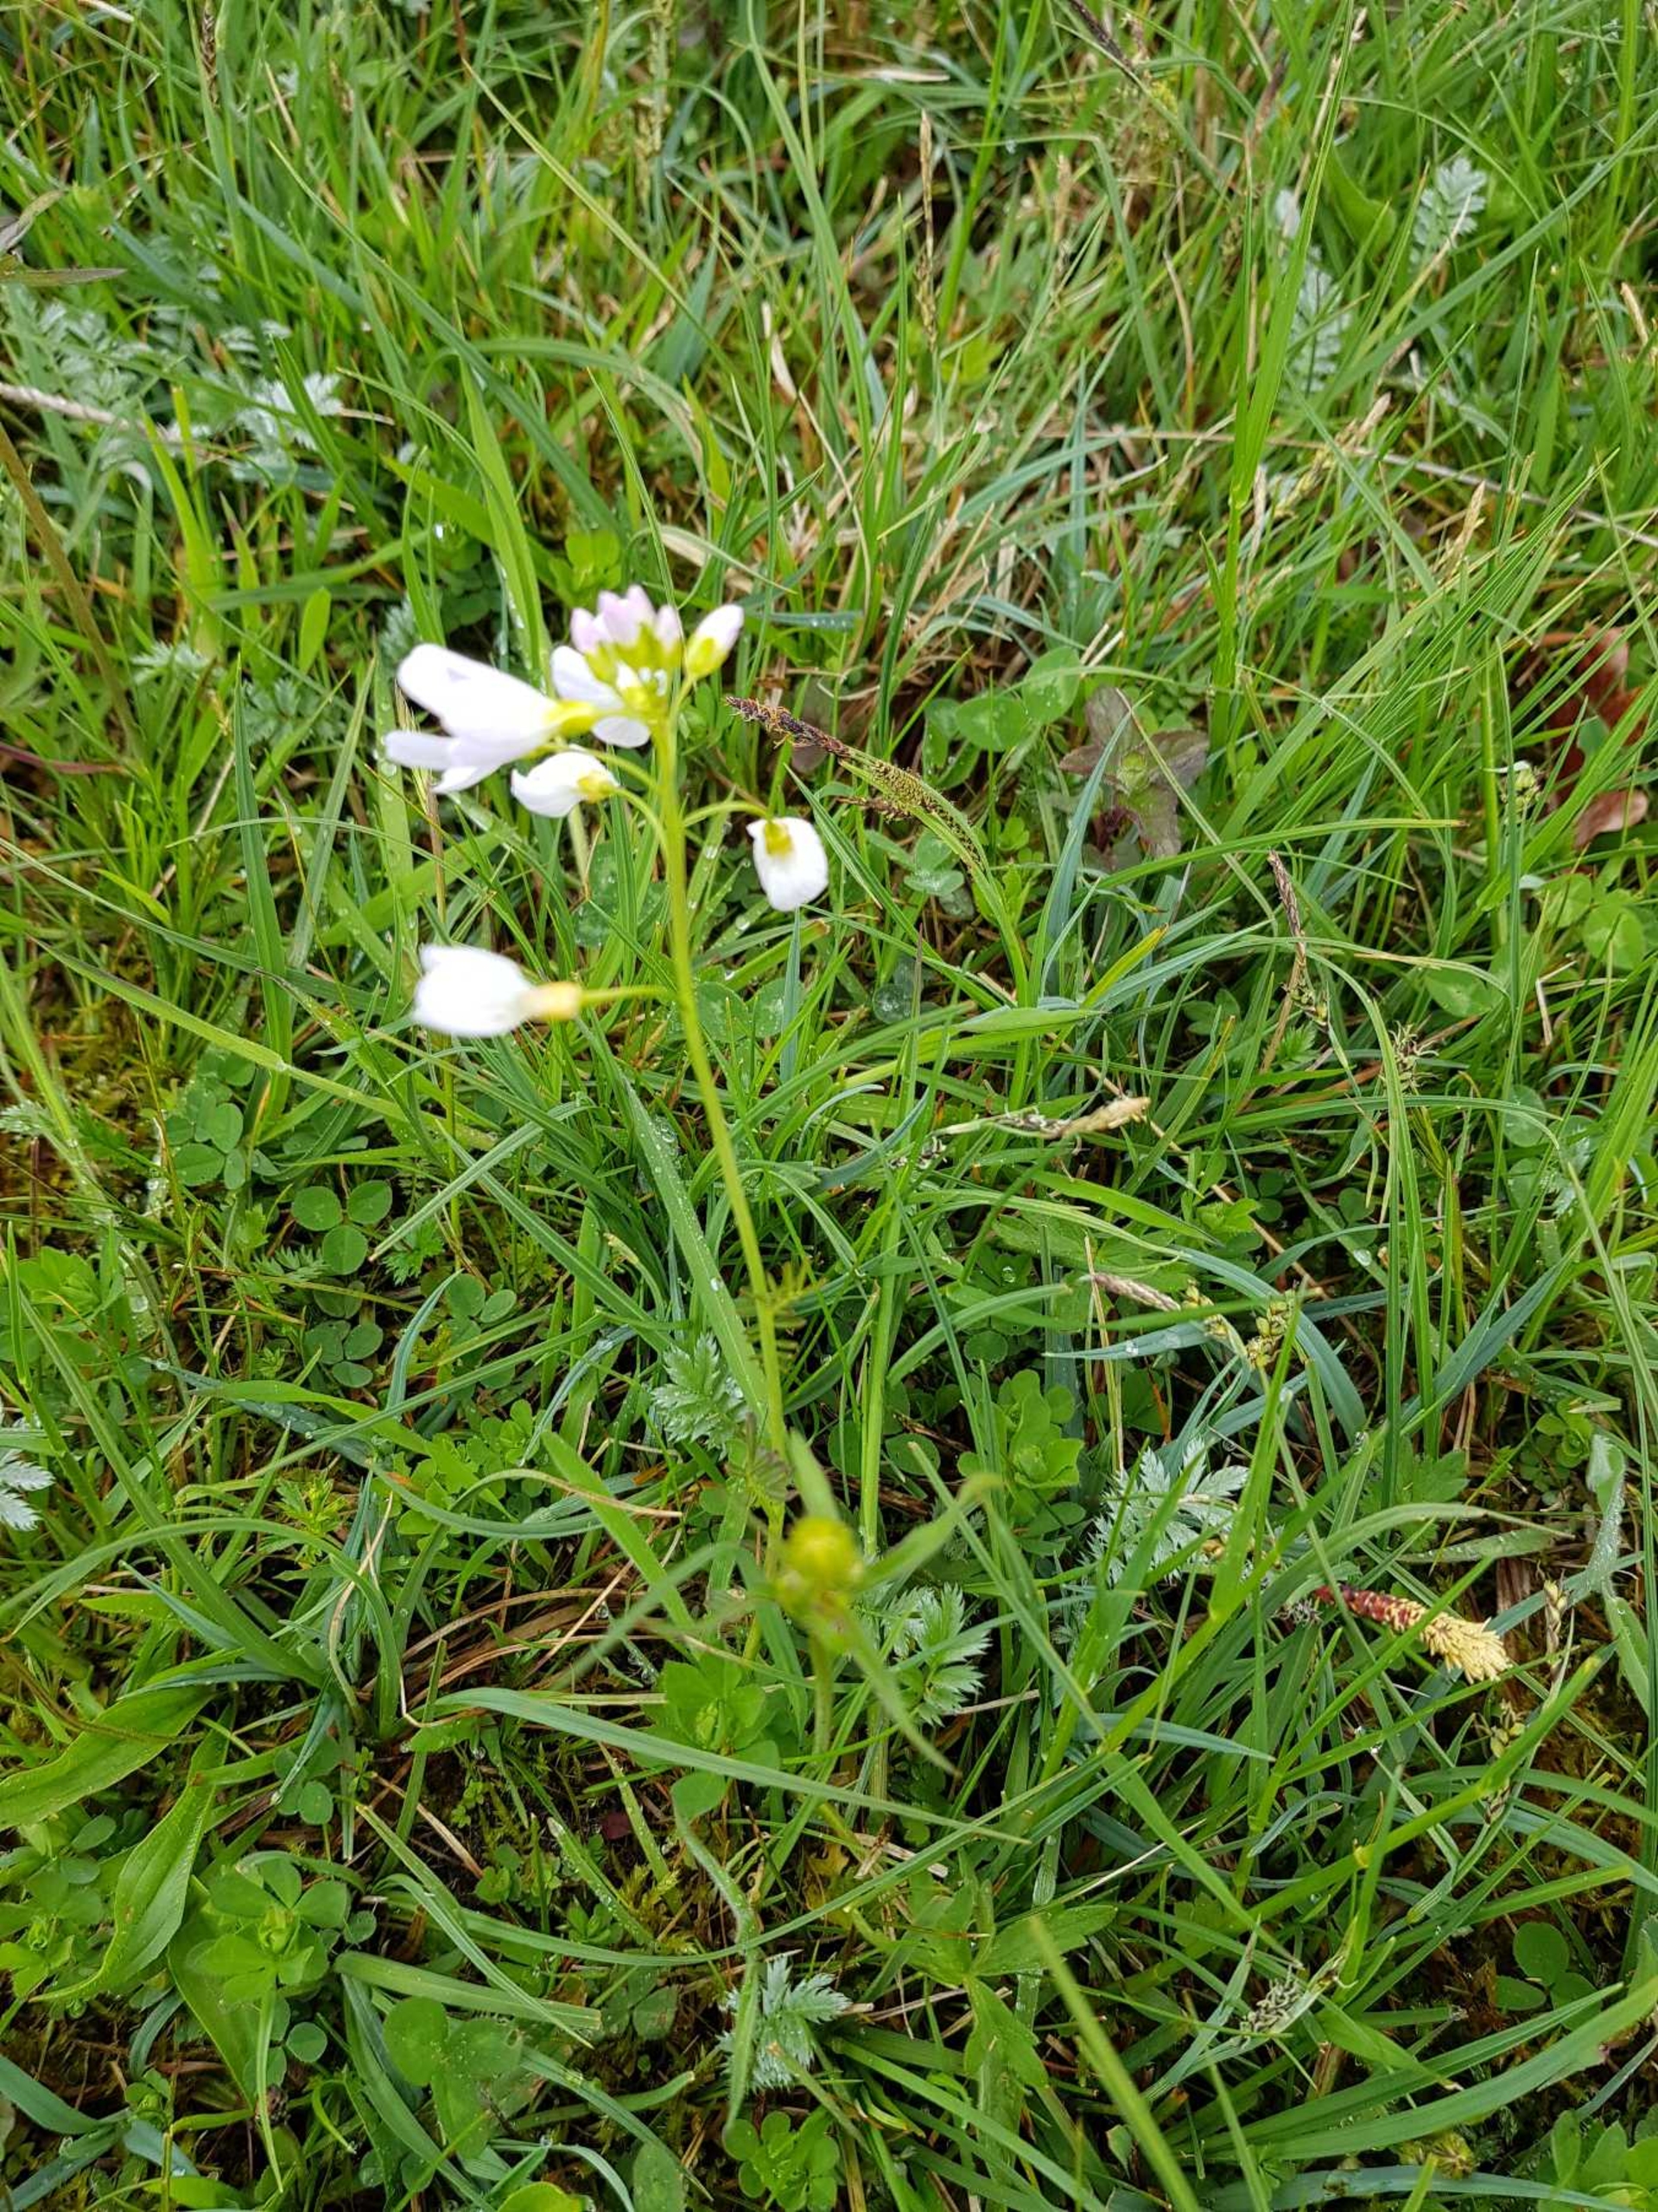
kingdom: Plantae
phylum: Tracheophyta
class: Magnoliopsida
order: Brassicales
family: Brassicaceae
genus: Cardamine
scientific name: Cardamine pratensis
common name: Engkarse
